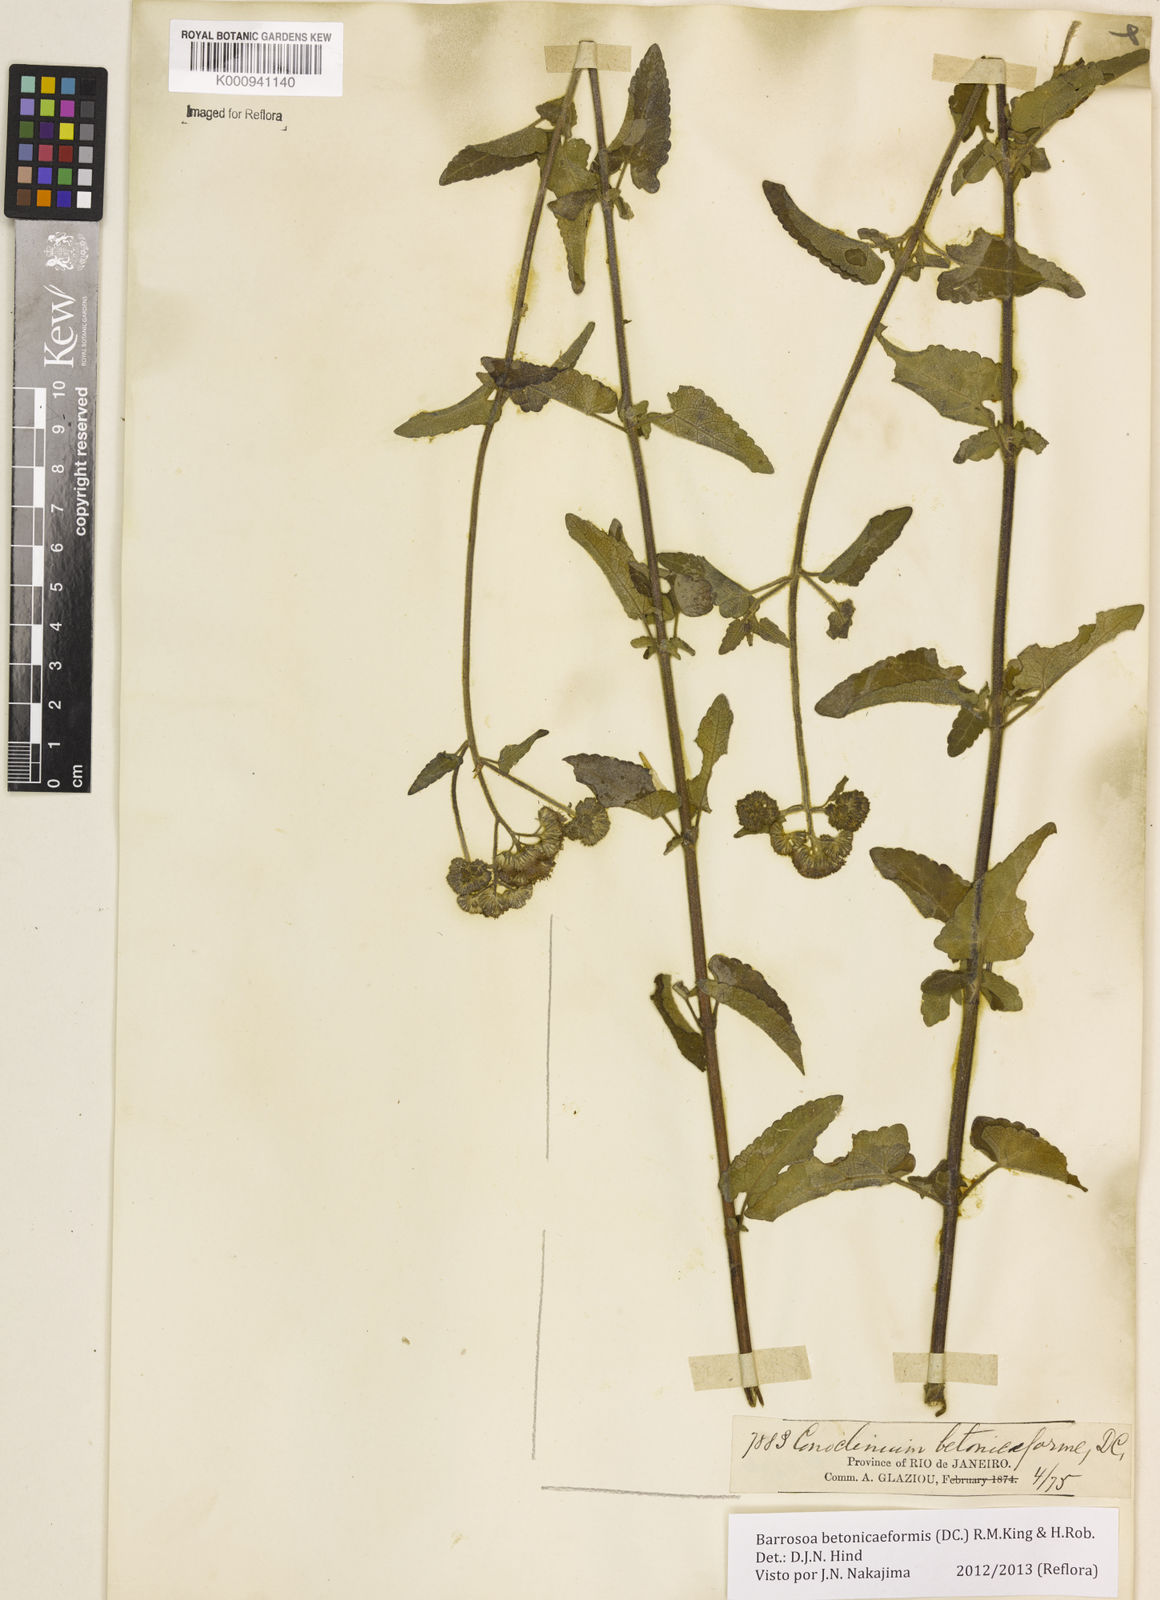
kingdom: Plantae
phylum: Tracheophyta
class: Magnoliopsida
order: Asterales
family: Asteraceae
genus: Barrosoa
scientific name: Barrosoa betoniciformis
